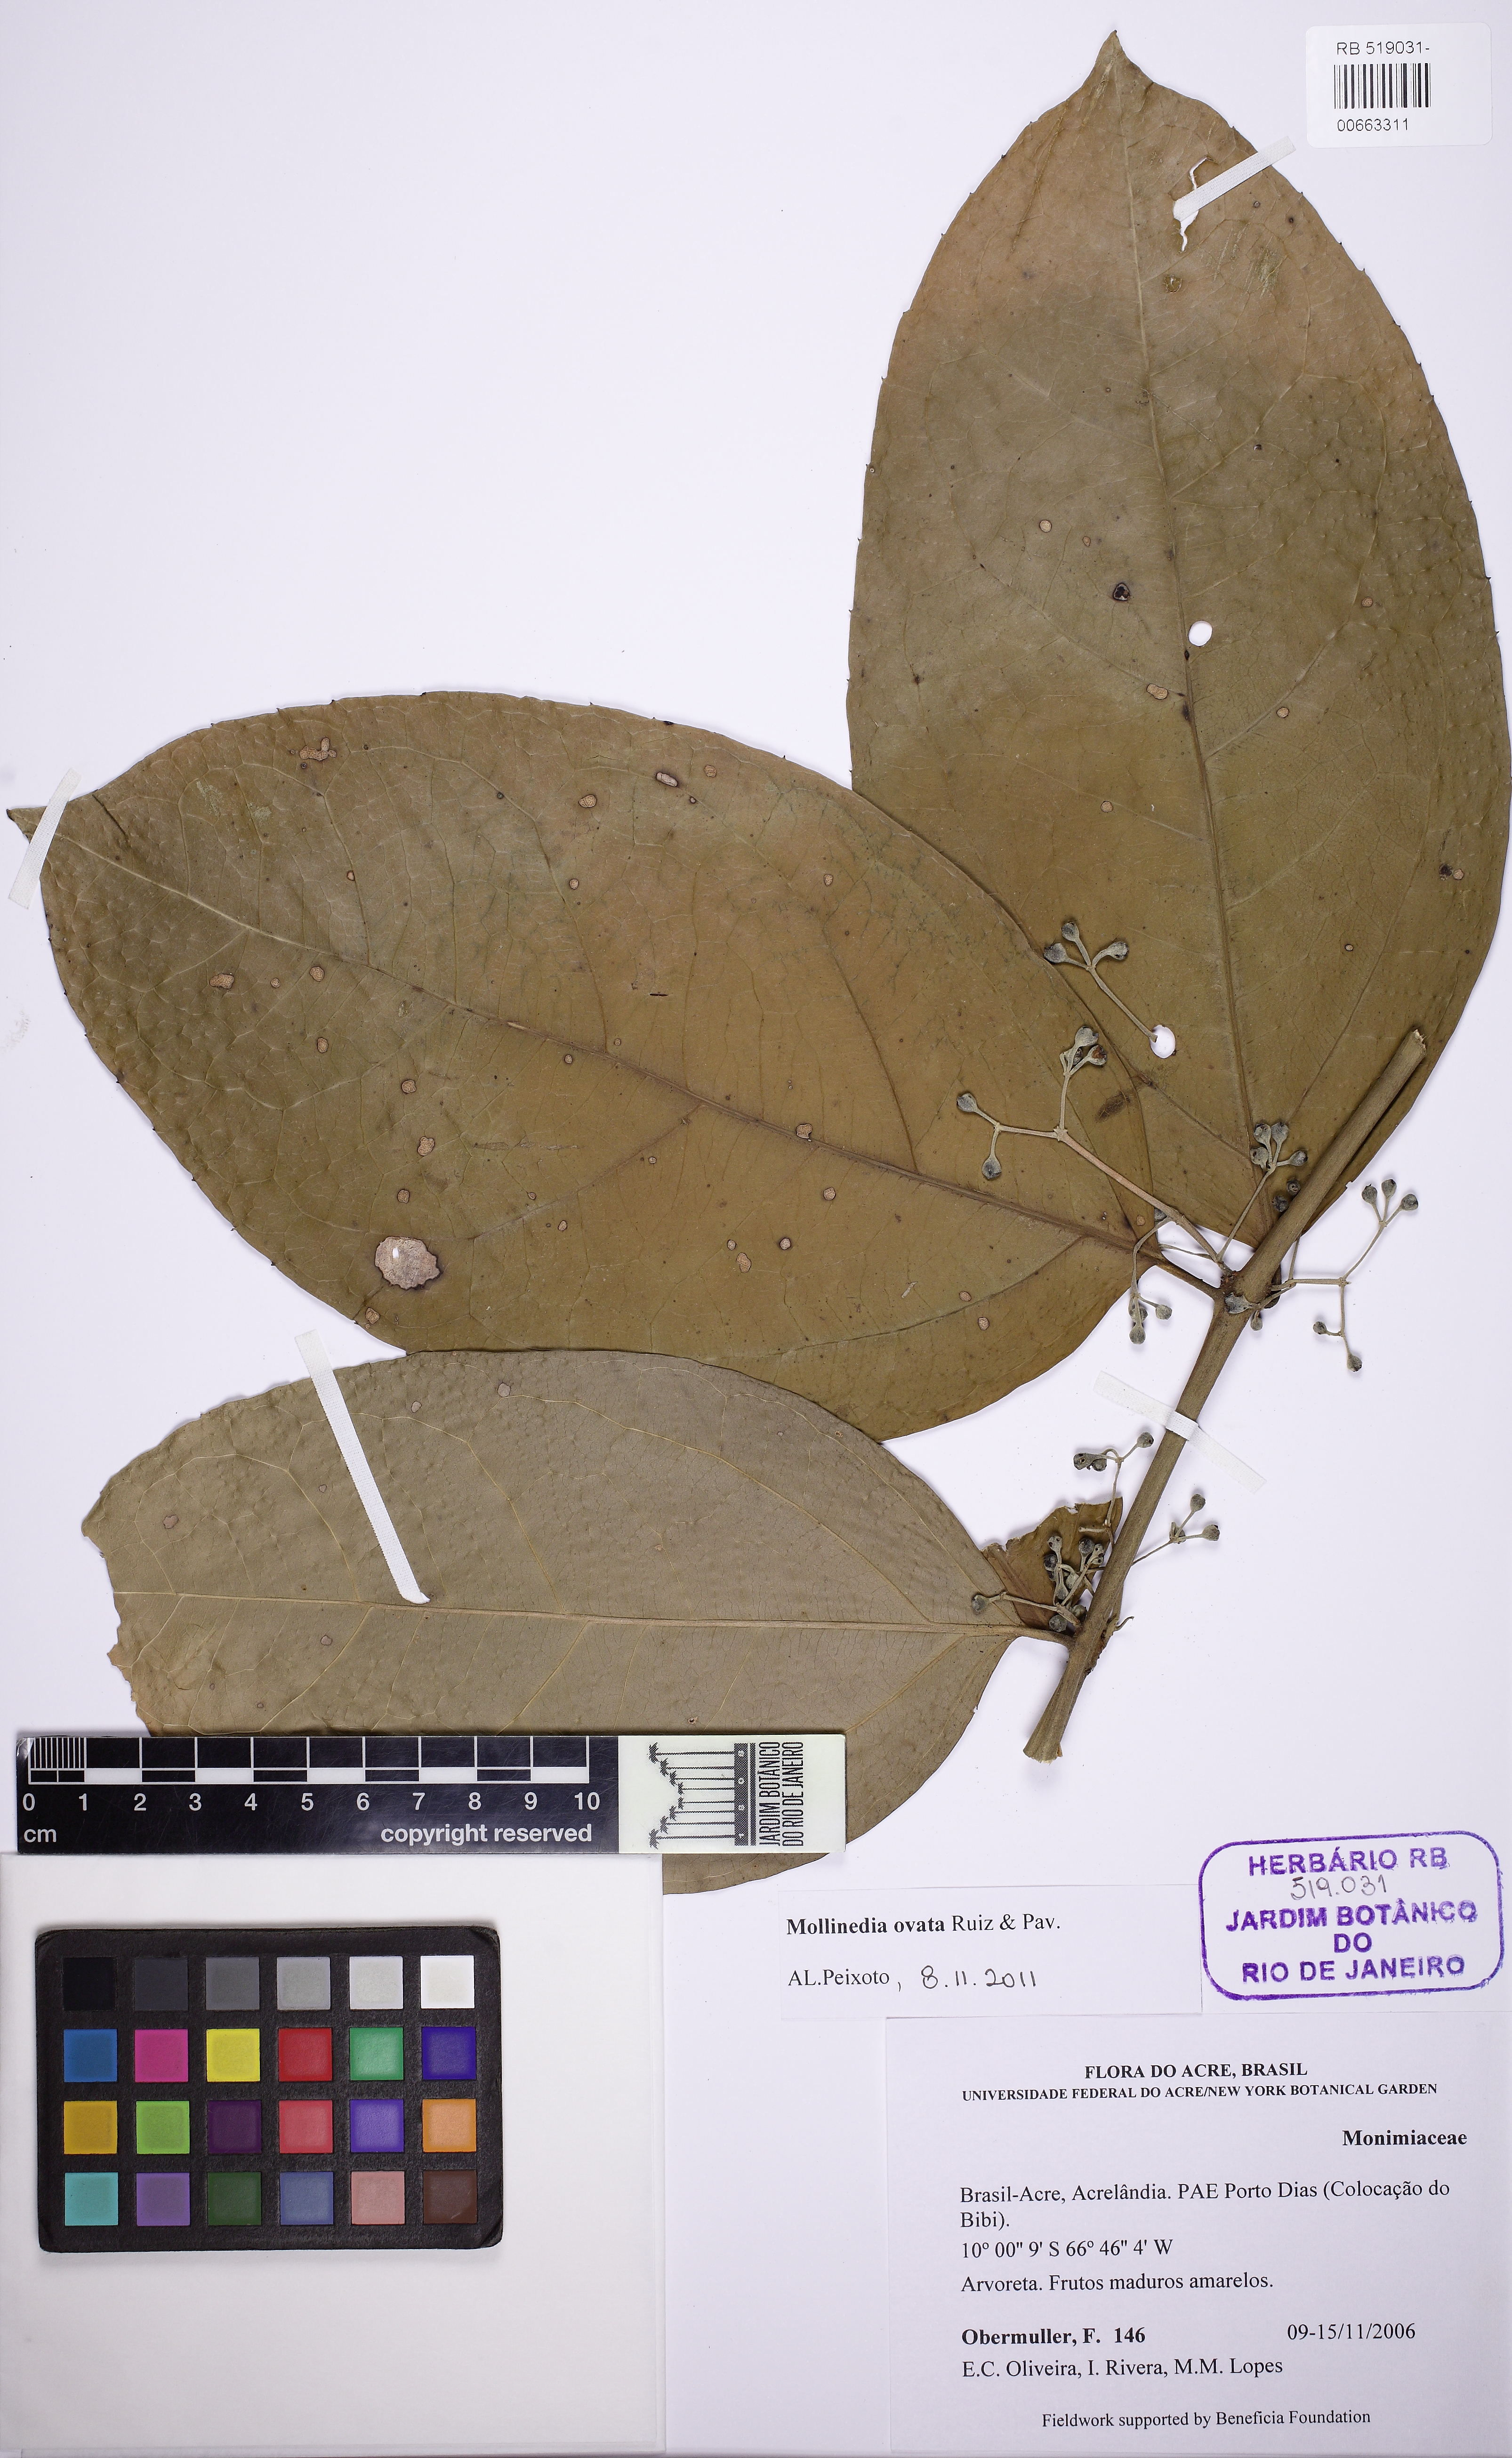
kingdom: Plantae
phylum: Tracheophyta
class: Magnoliopsida
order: Laurales
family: Monimiaceae
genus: Mollinedia
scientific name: Mollinedia ovata
